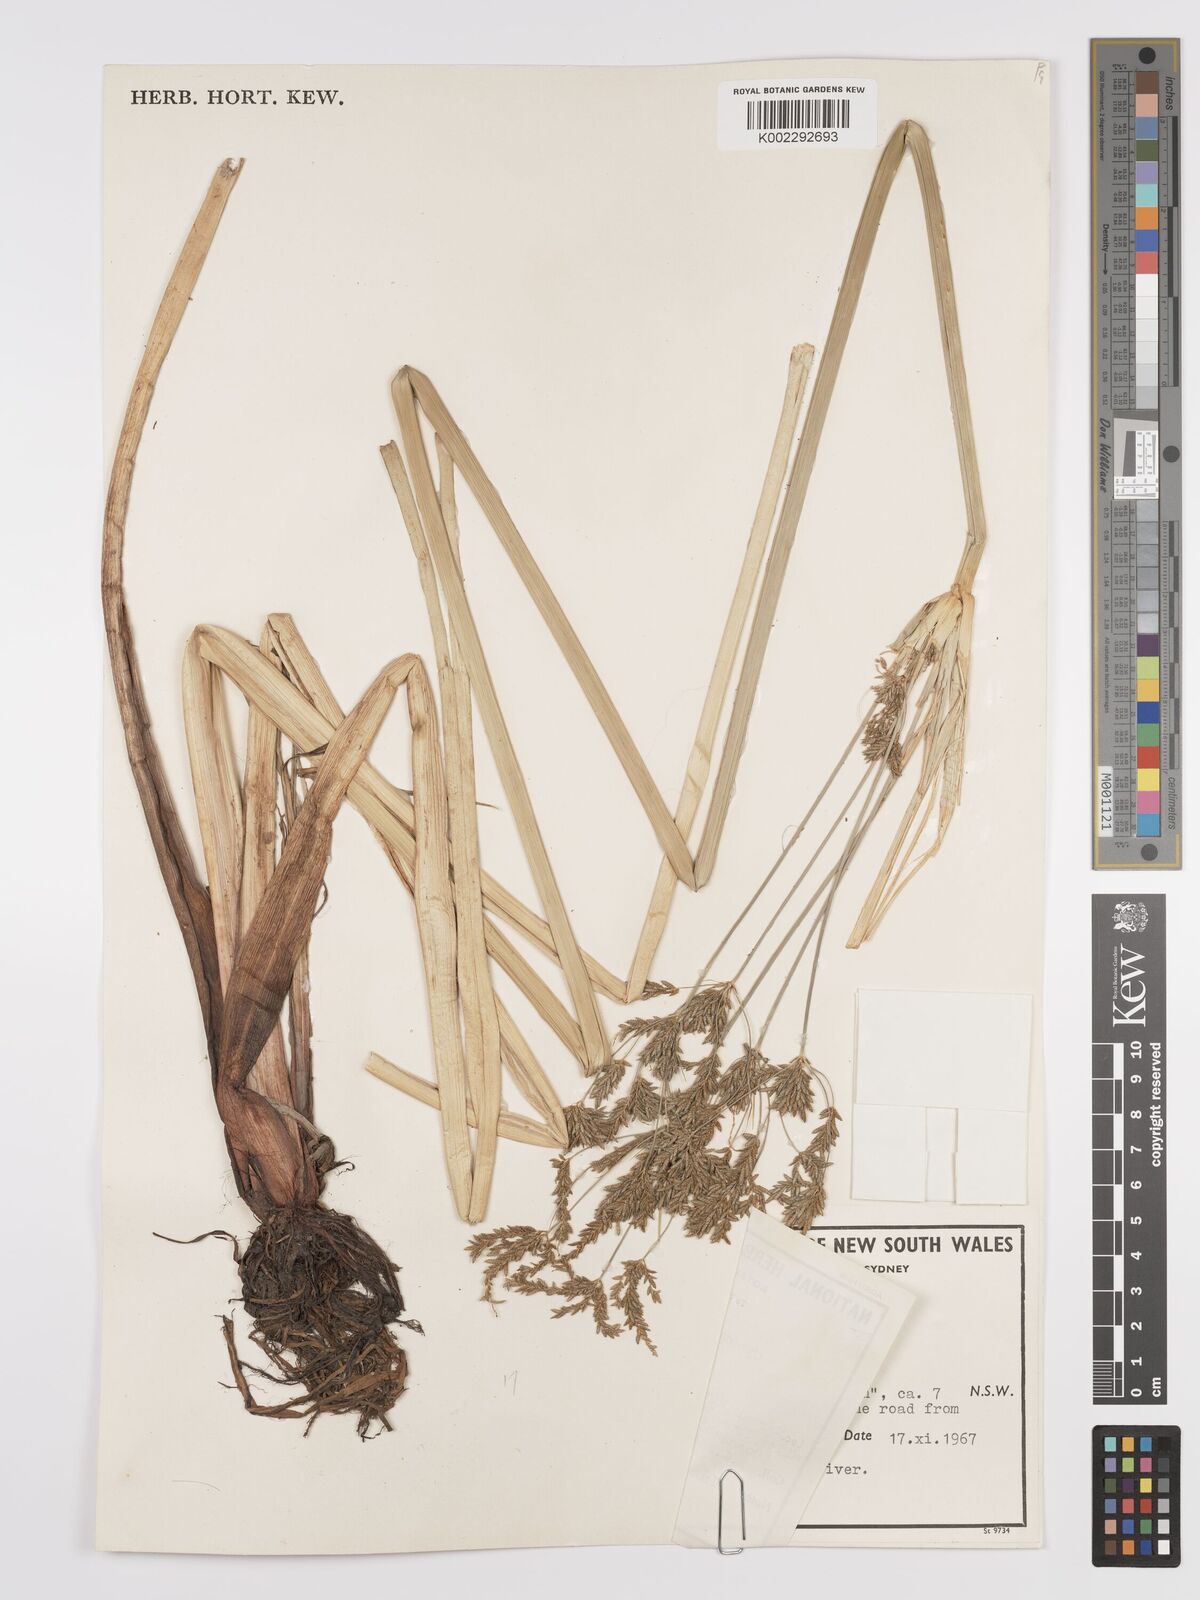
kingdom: Plantae
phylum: Tracheophyta
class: Liliopsida
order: Poales
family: Cyperaceae
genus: Cyperus
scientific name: Cyperus exaltatus
